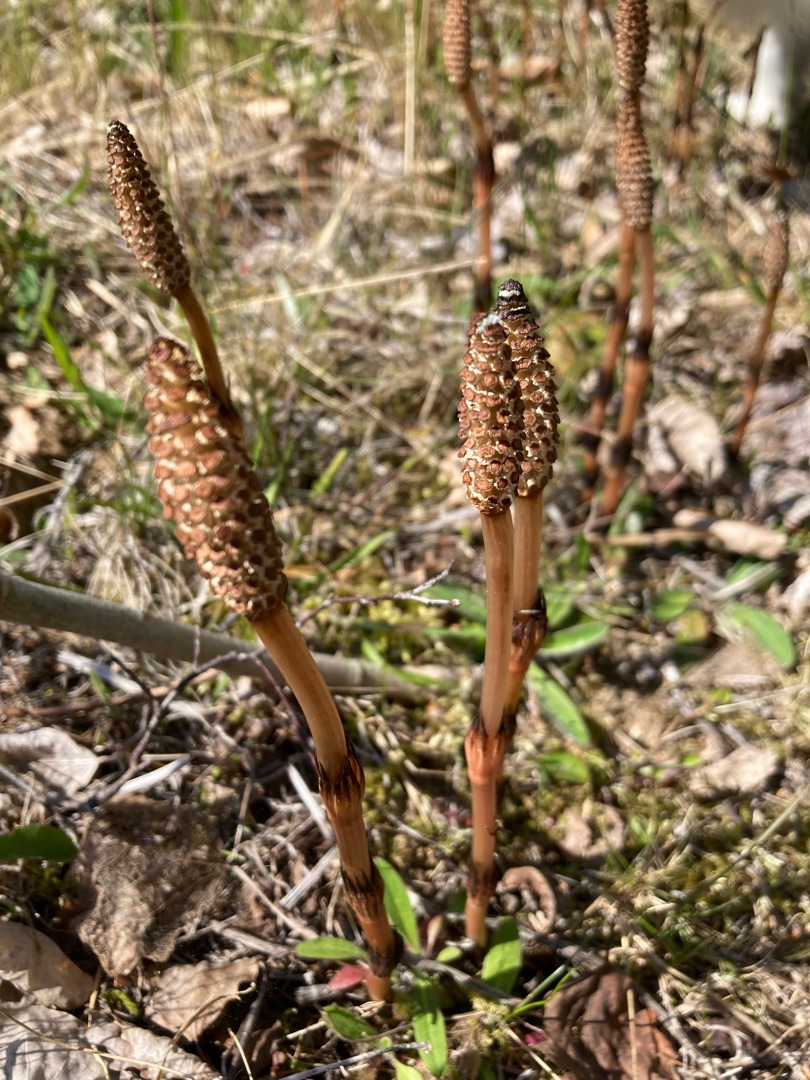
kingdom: Plantae
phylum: Tracheophyta
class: Polypodiopsida
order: Equisetales
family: Equisetaceae
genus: Equisetum
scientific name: Equisetum arvense
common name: Ager-padderok
